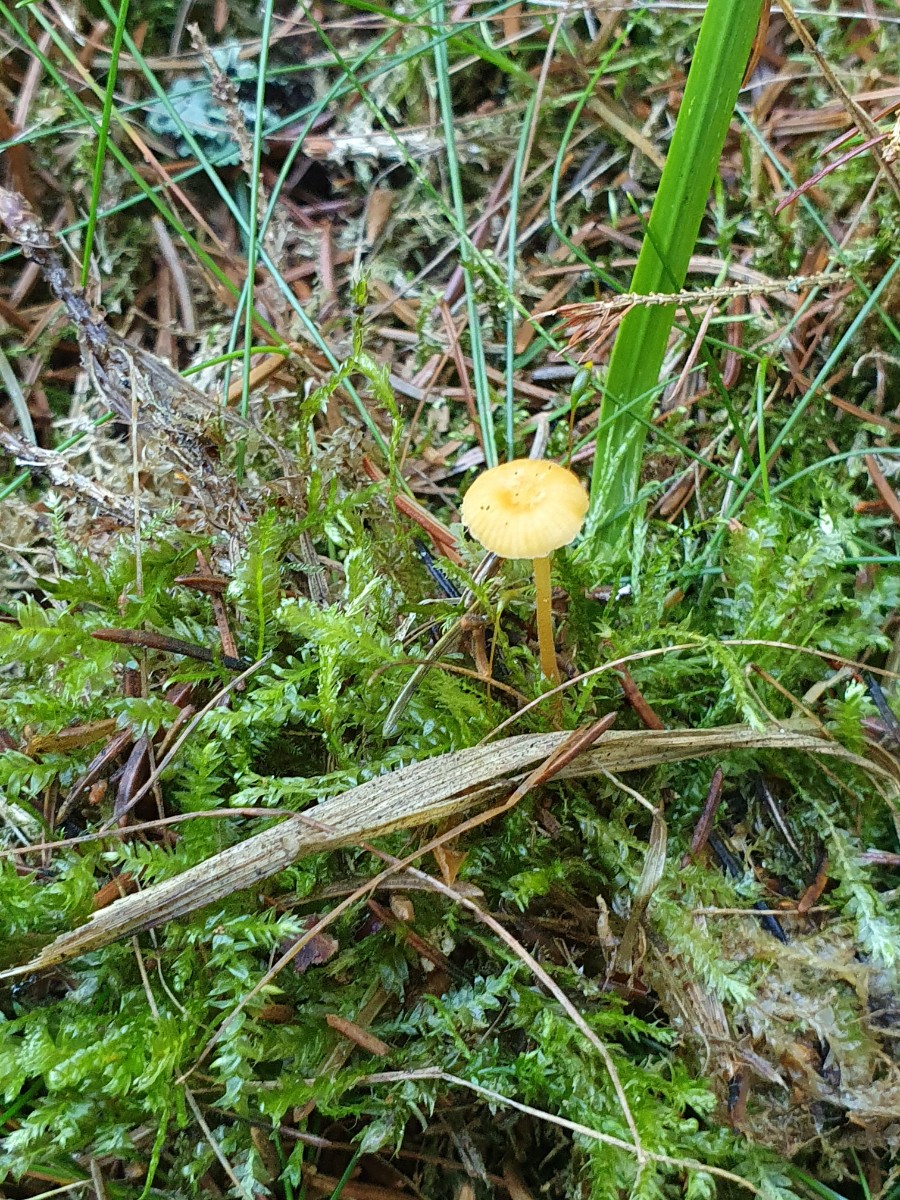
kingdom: Fungi
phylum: Basidiomycota
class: Agaricomycetes
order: Hymenochaetales
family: Rickenellaceae
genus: Rickenella
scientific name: Rickenella fibula
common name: orange mosnavlehat
